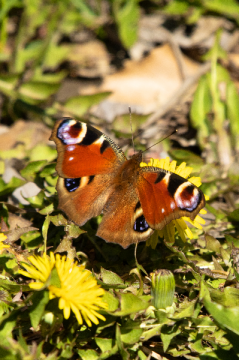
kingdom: Animalia
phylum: Arthropoda
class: Insecta
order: Lepidoptera
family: Nymphalidae
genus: Aglais
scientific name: Aglais io
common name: European Peacock
